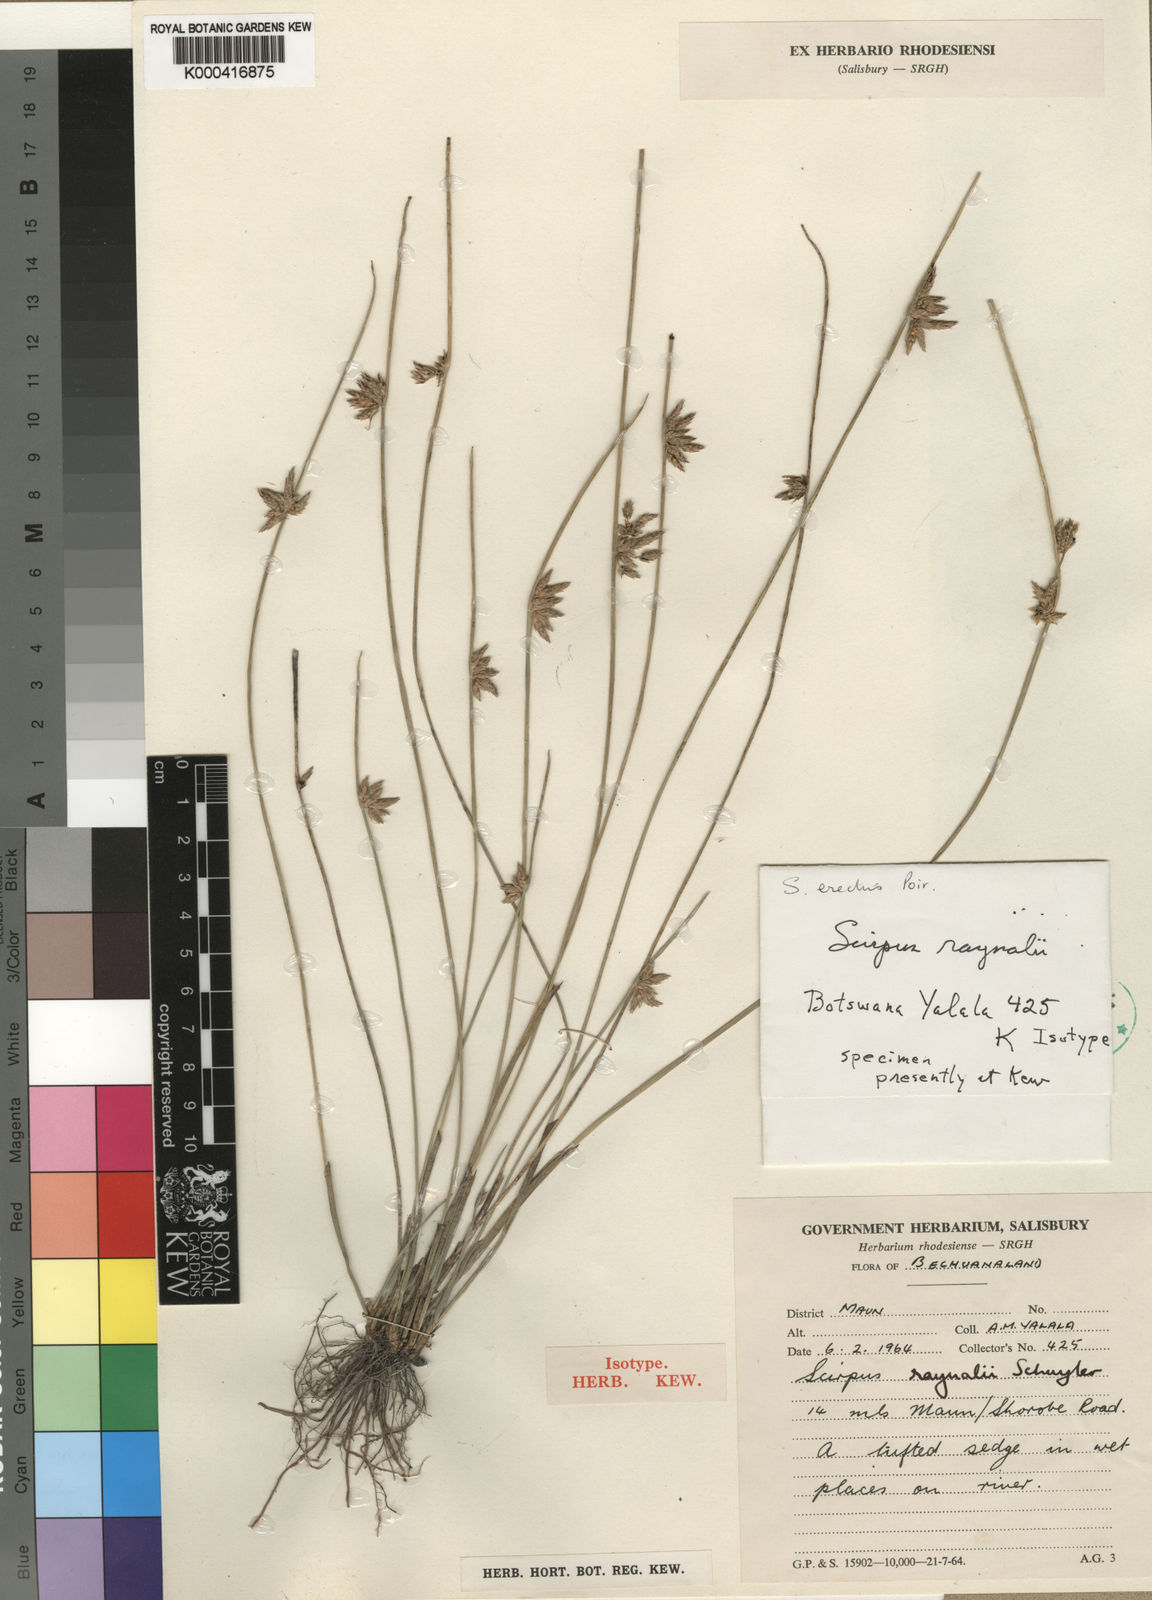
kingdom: Plantae
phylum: Tracheophyta
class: Liliopsida
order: Poales
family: Cyperaceae
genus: Schoenoplectiella
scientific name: Schoenoplectiella erecta
